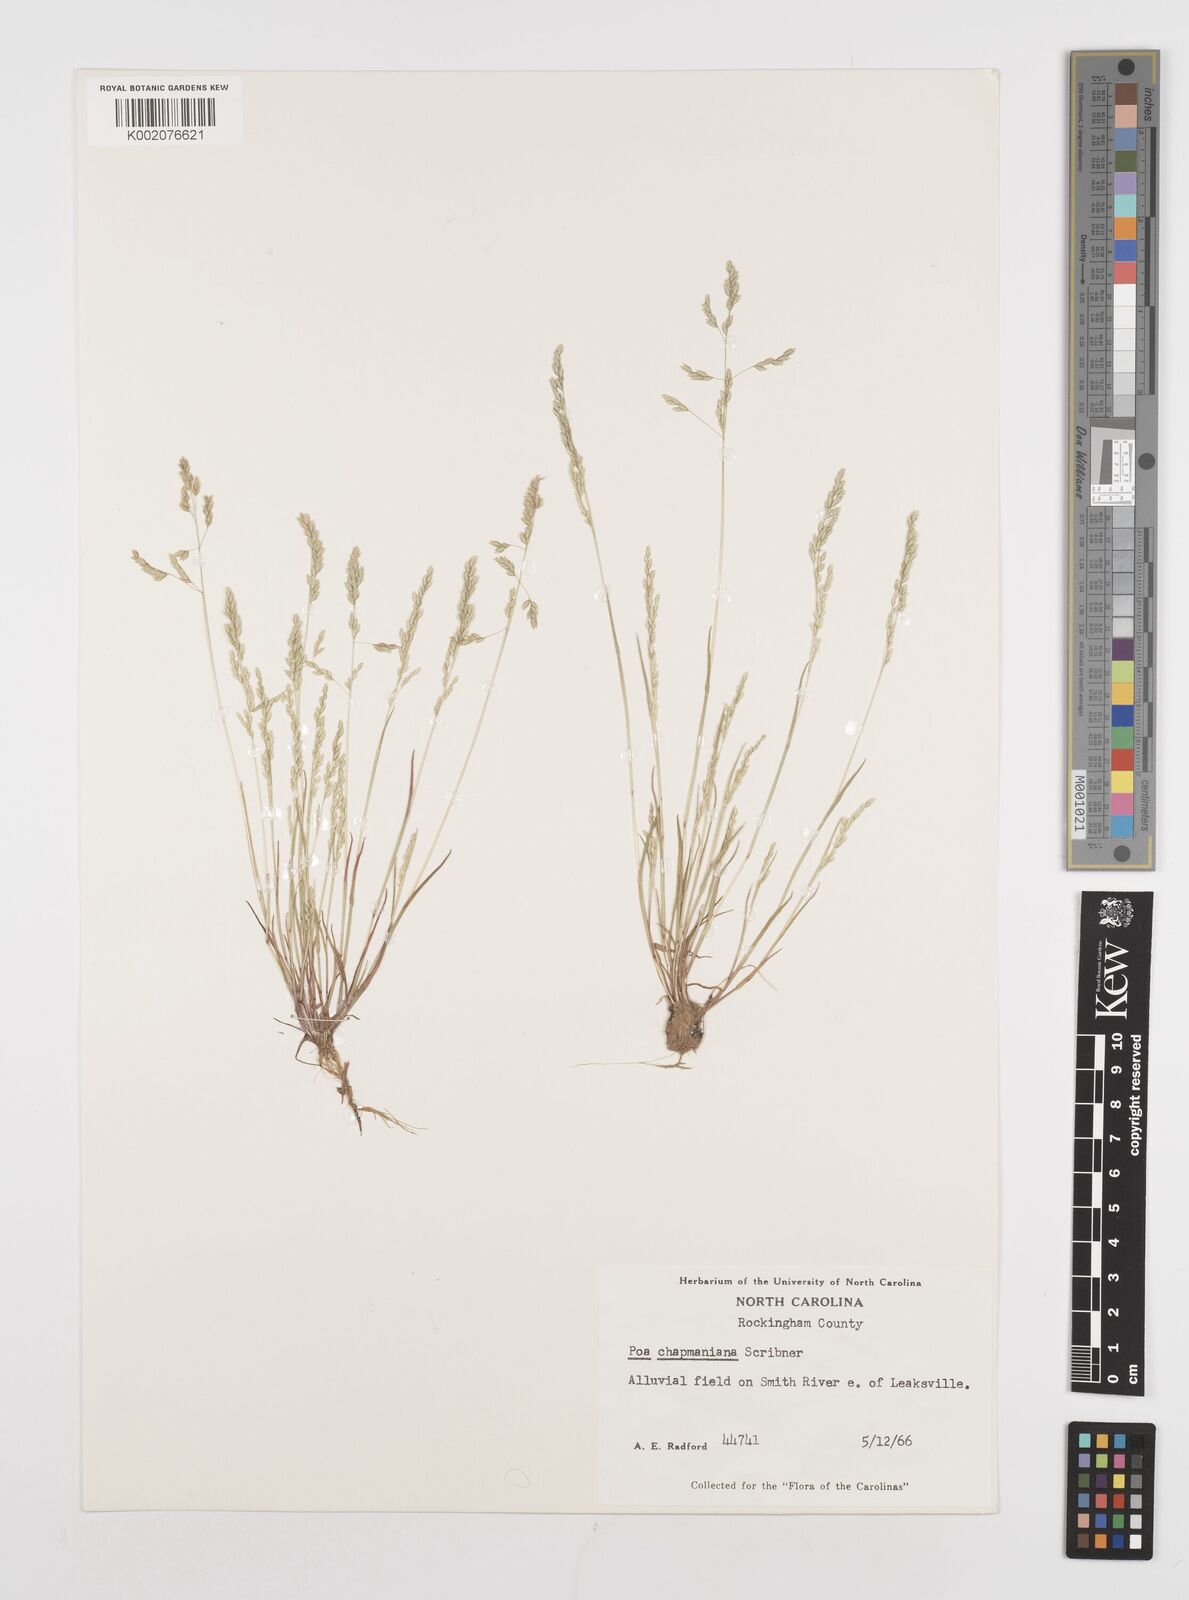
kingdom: Plantae
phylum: Tracheophyta
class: Liliopsida
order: Poales
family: Poaceae
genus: Poa
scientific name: Poa chapmaniana
